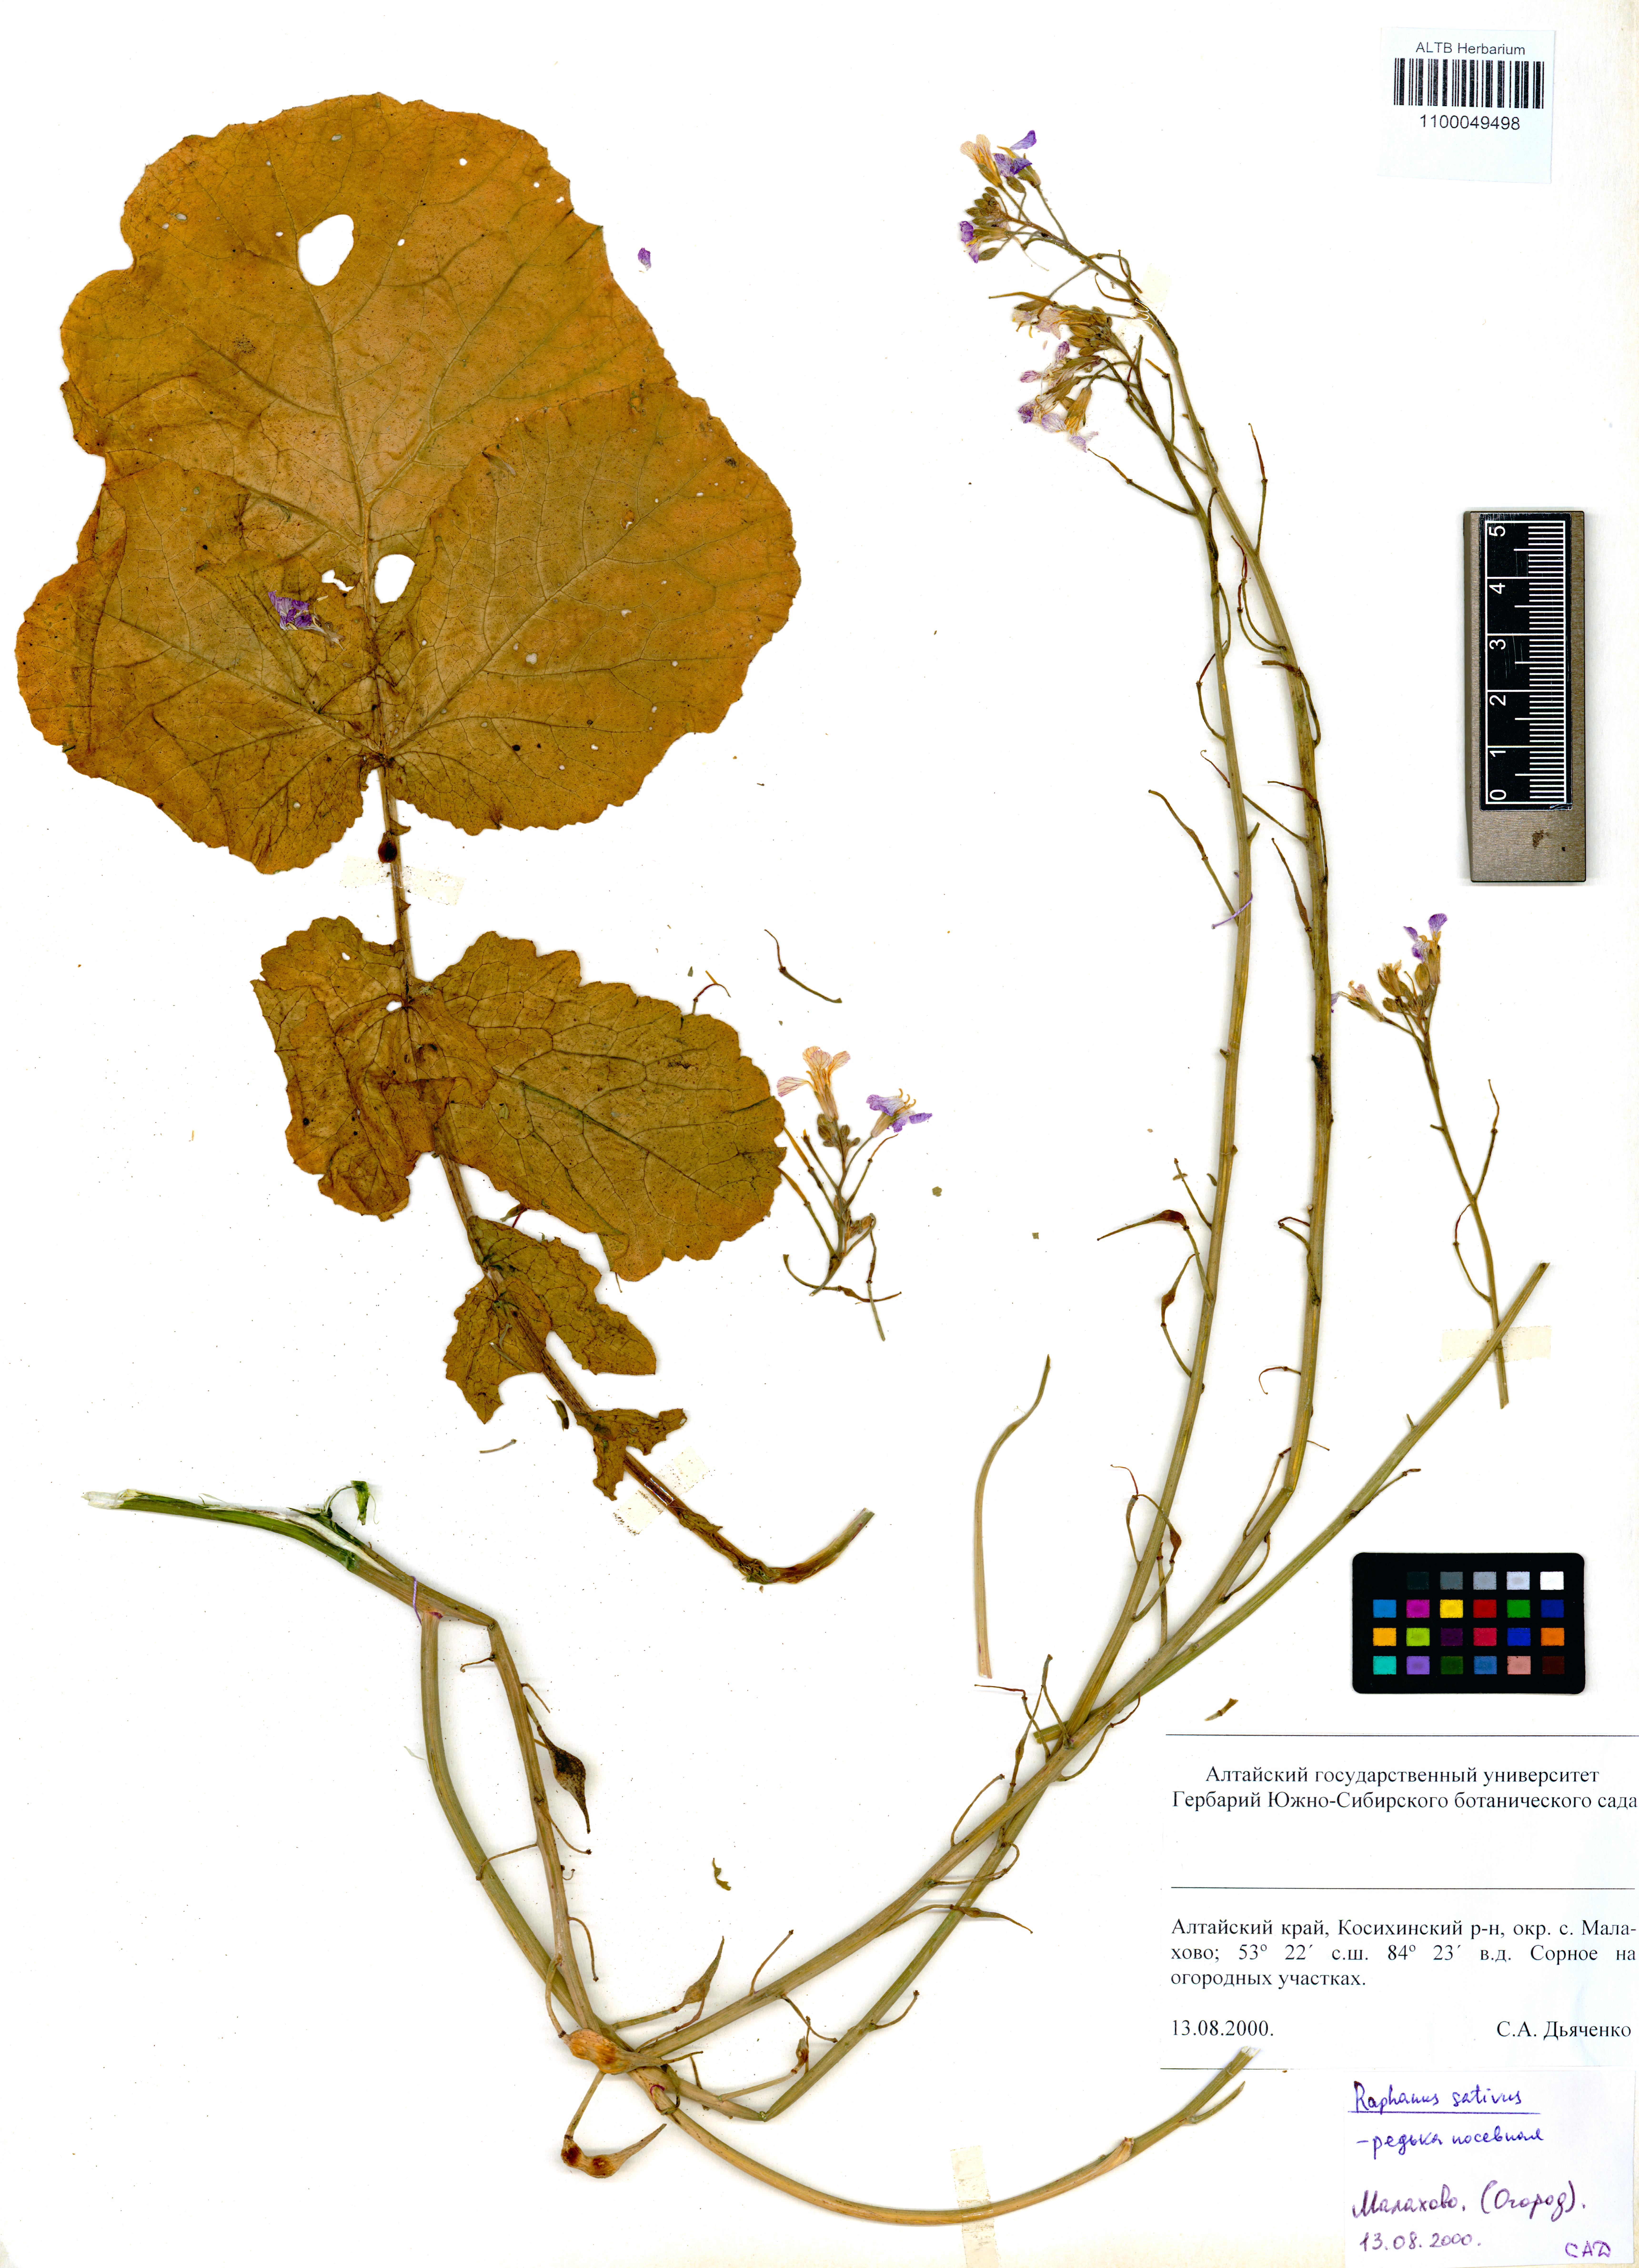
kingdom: Plantae
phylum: Tracheophyta
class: Magnoliopsida
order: Brassicales
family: Brassicaceae
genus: Raphanus
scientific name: Raphanus sativus
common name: Cultivated radish
